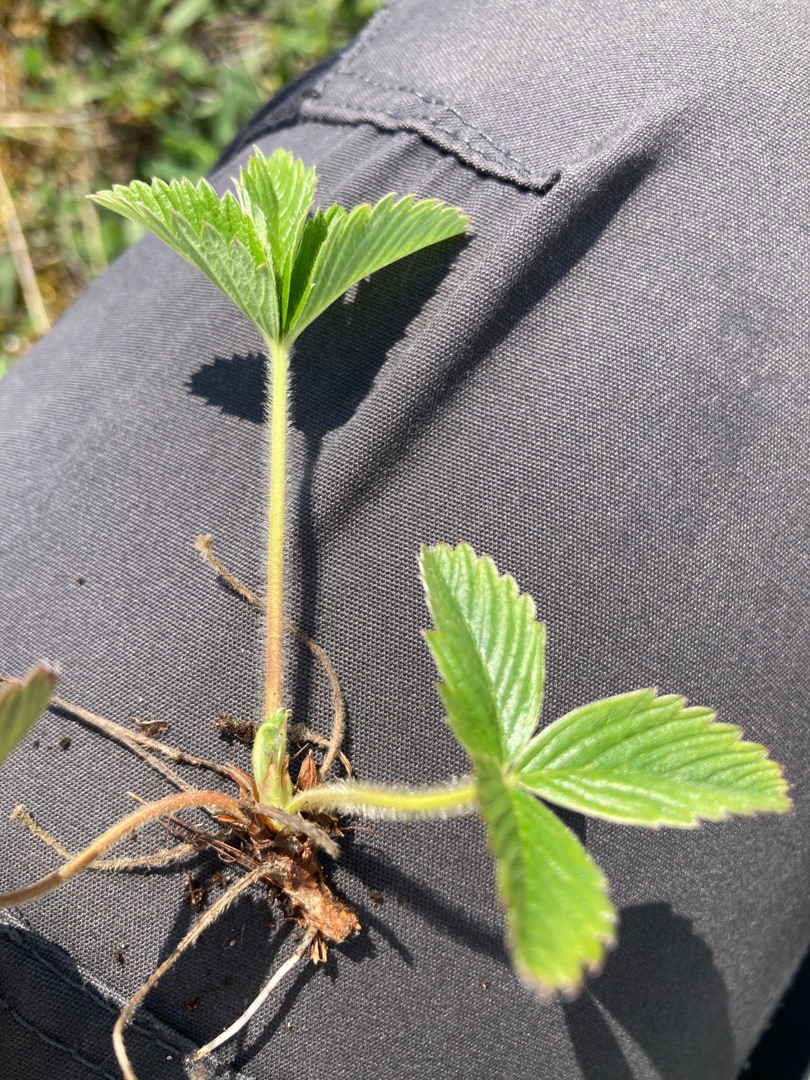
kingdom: Plantae
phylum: Tracheophyta
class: Magnoliopsida
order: Rosales
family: Rosaceae
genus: Fragaria
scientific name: Fragaria viridis
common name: Bakke-jordbær
